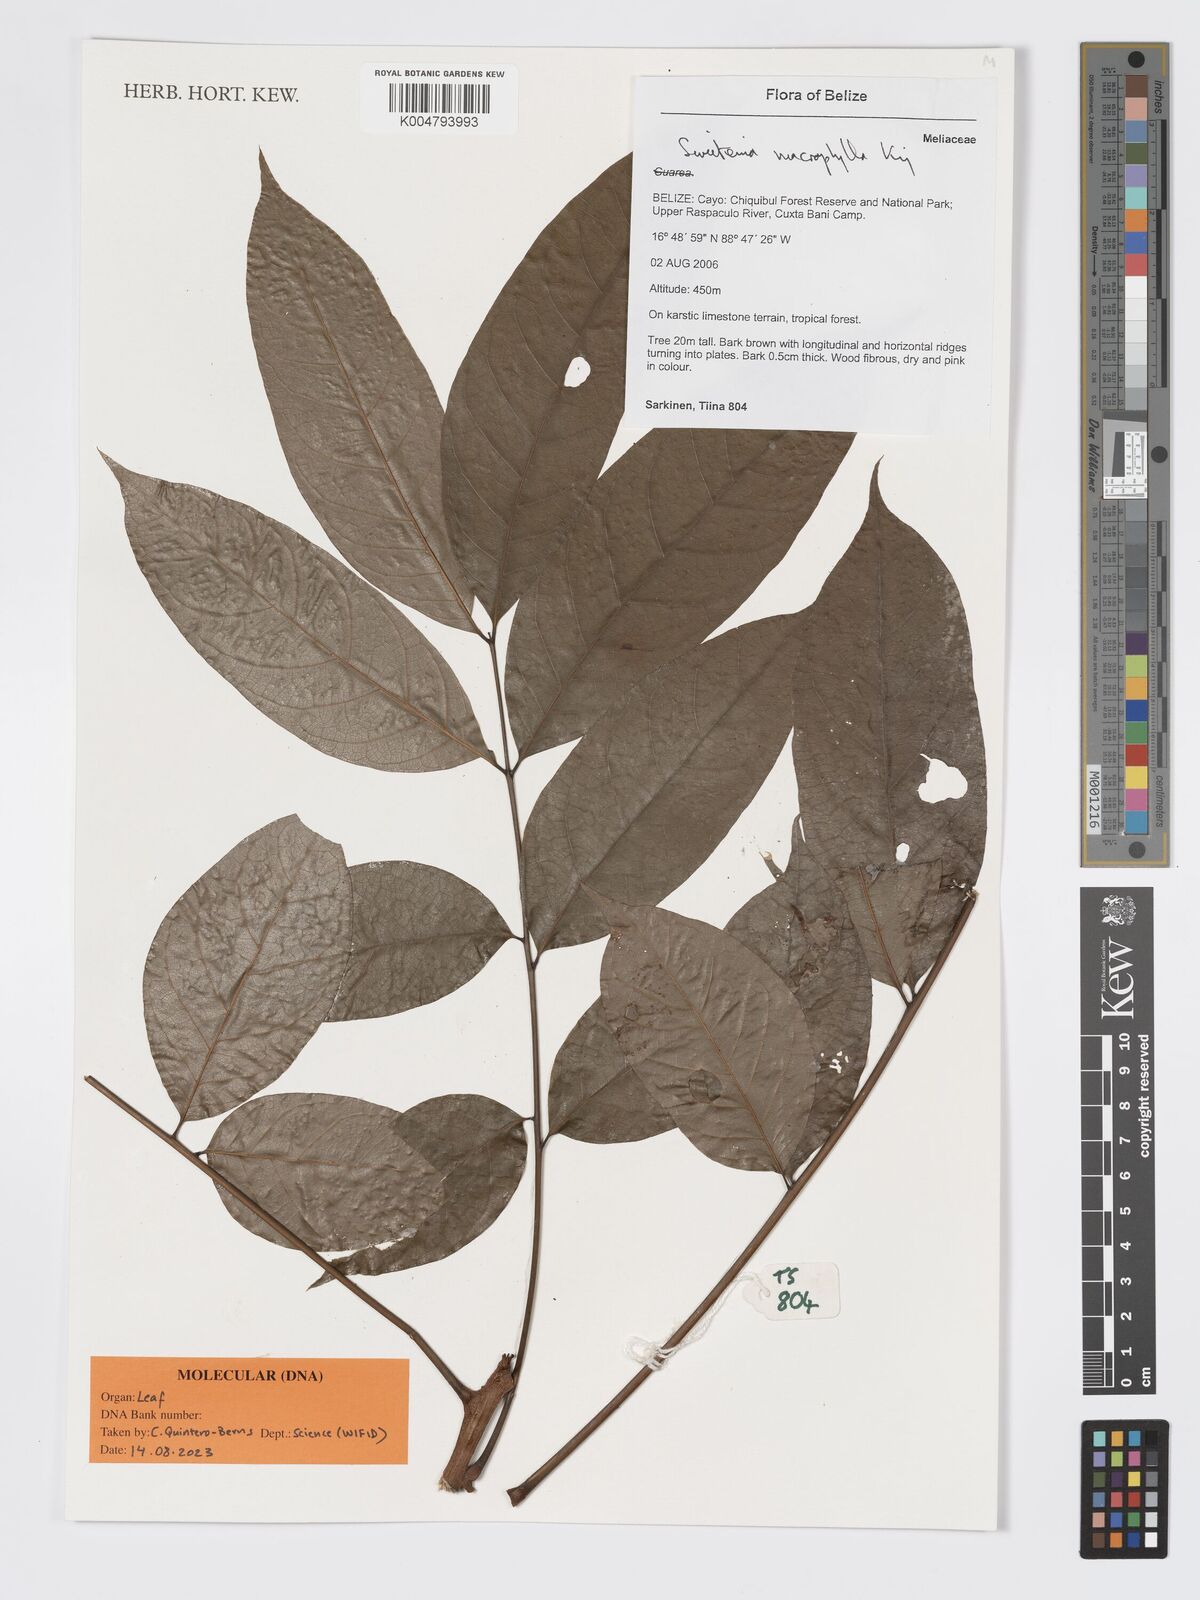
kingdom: Plantae
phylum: Tracheophyta
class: Magnoliopsida
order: Sapindales
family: Meliaceae
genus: Swietenia
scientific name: Swietenia macrophylla
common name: Honduras mahogany
